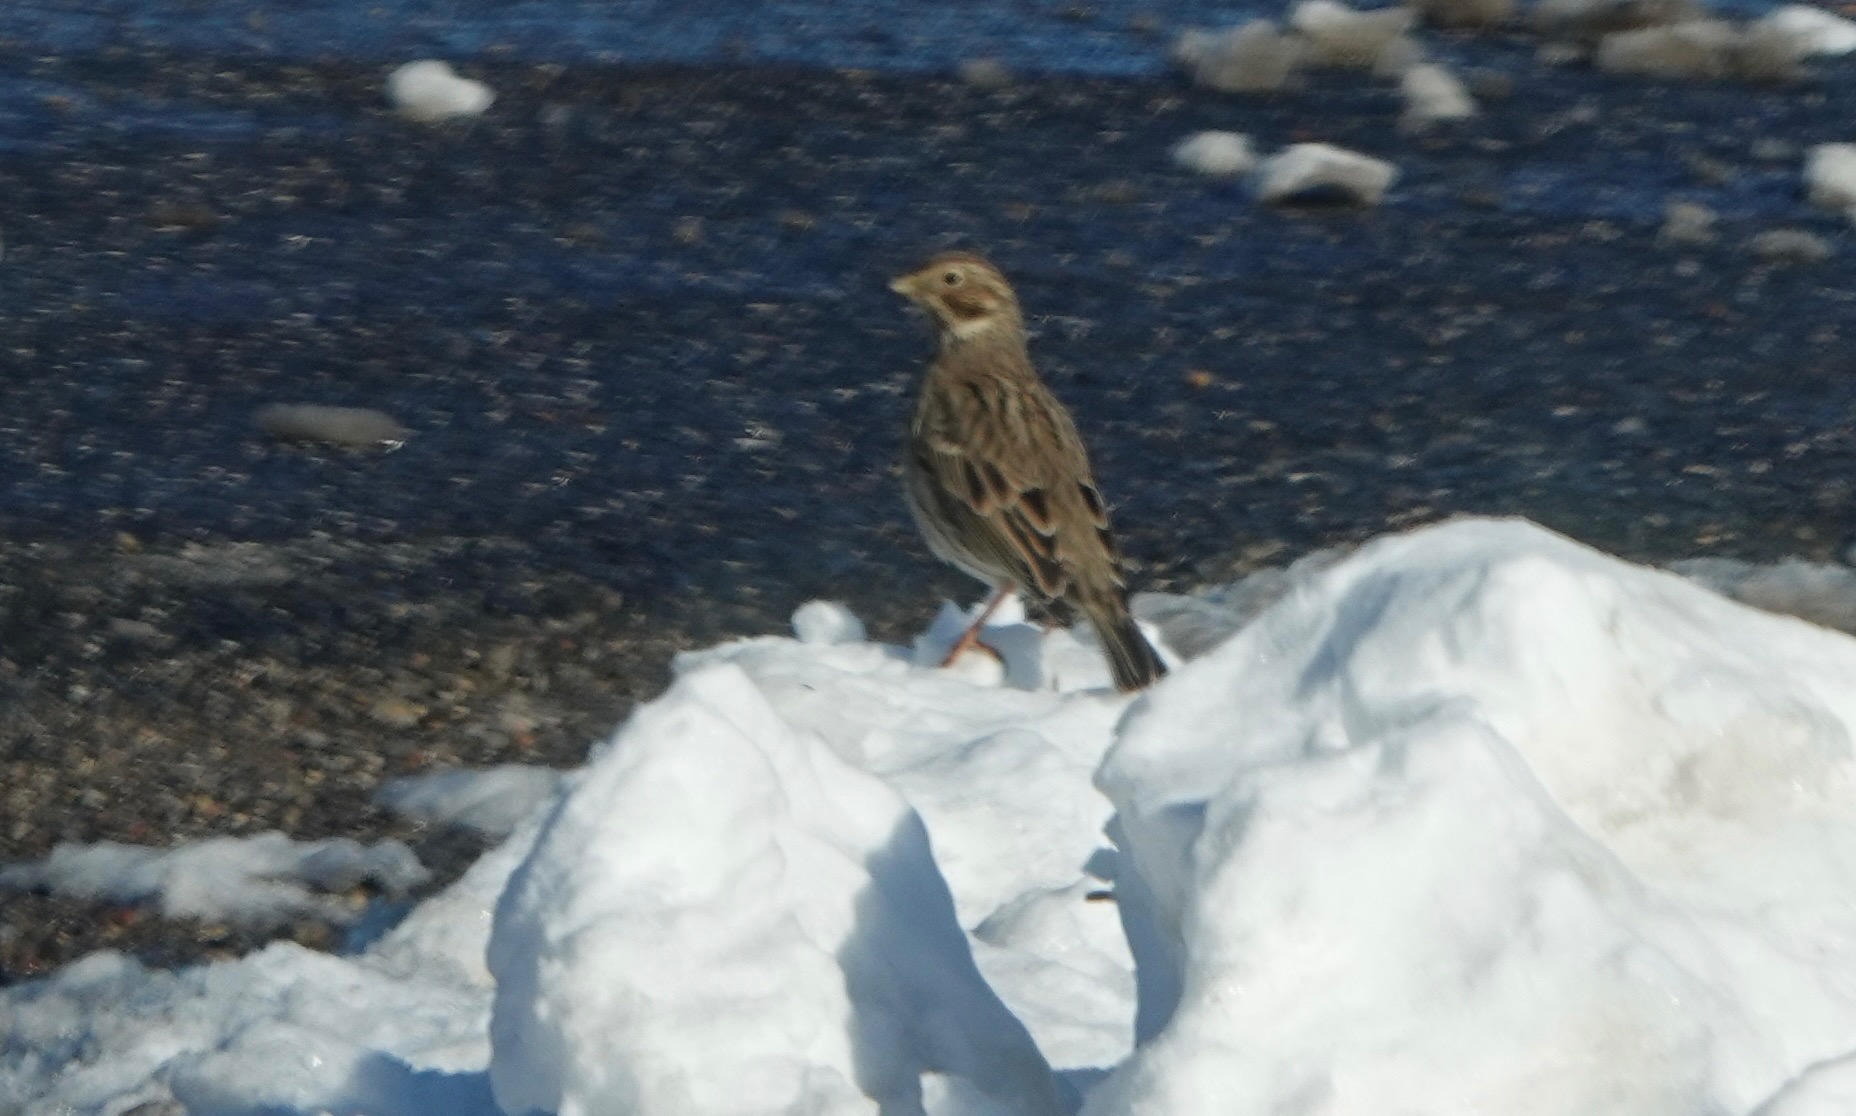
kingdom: Animalia
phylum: Chordata
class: Aves
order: Passeriformes
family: Emberizidae
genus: Emberiza
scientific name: Emberiza calandra
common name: Bomlærke
